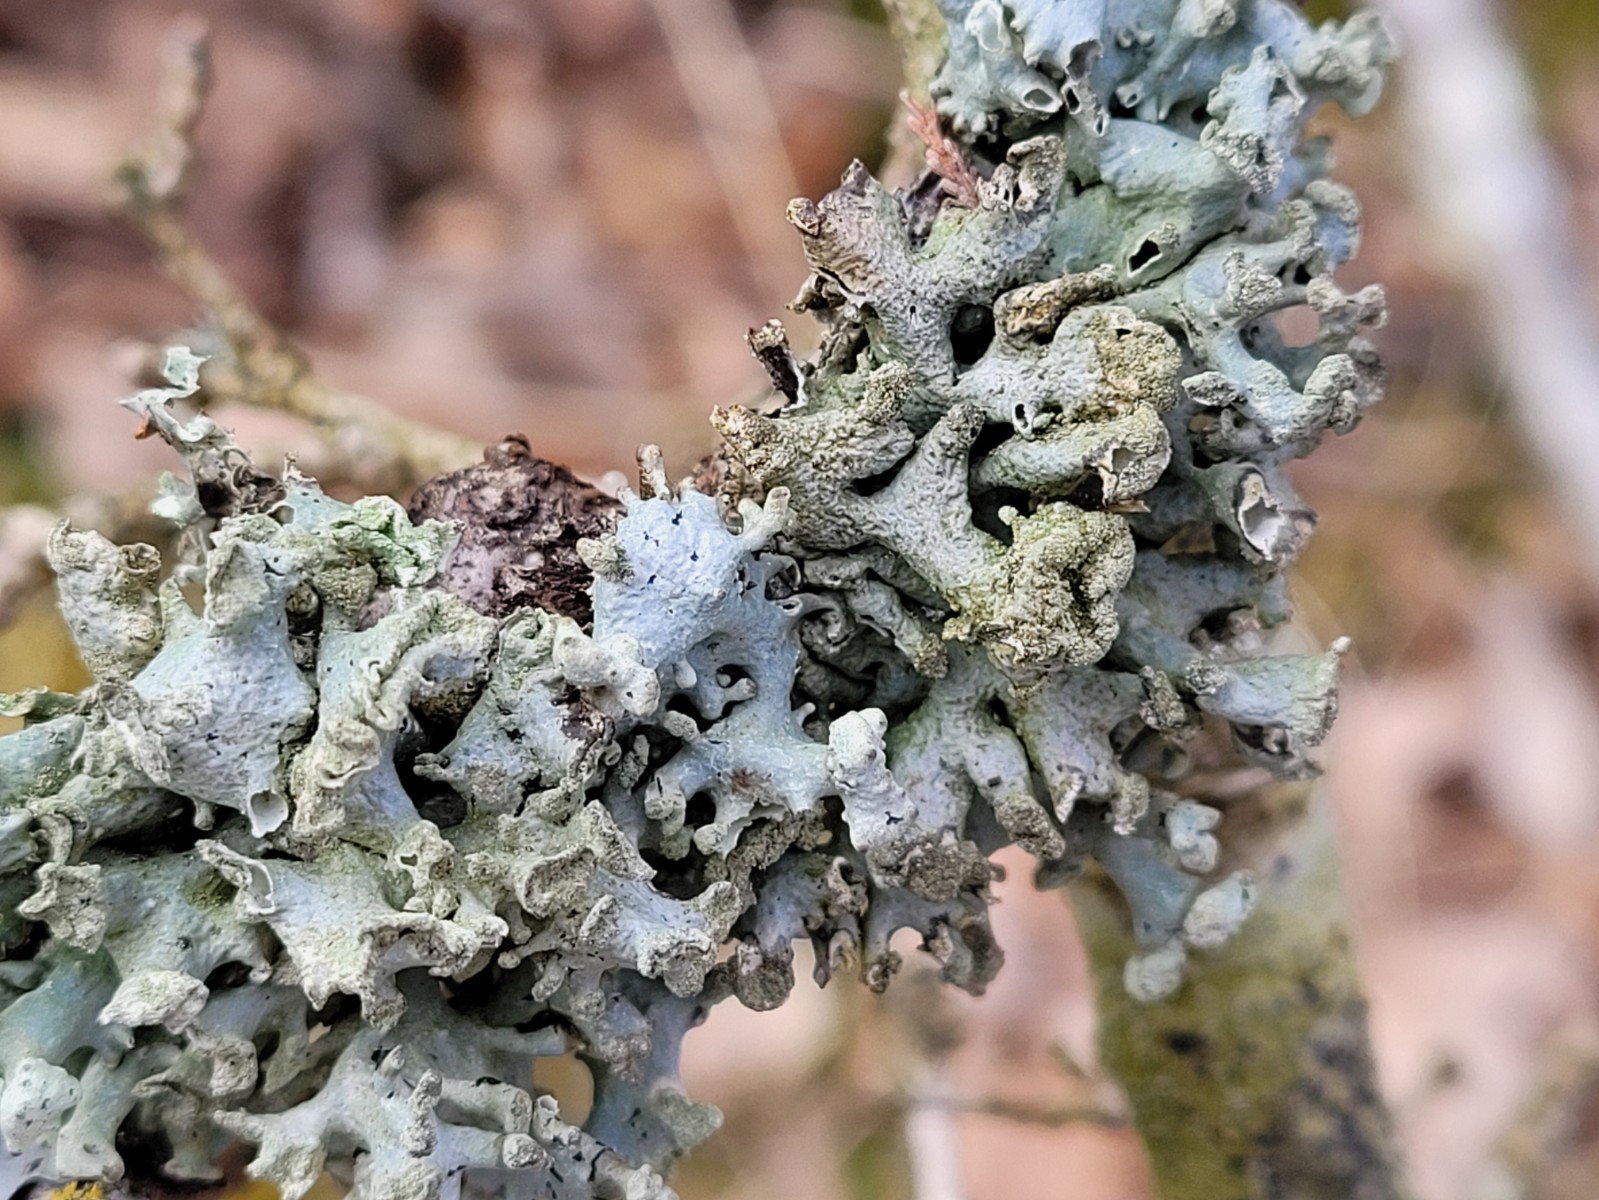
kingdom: Fungi
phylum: Ascomycota
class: Lecanoromycetes
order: Lecanorales
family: Parmeliaceae
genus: Hypogymnia
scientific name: Hypogymnia tubulosa
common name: finger-kvistlav
